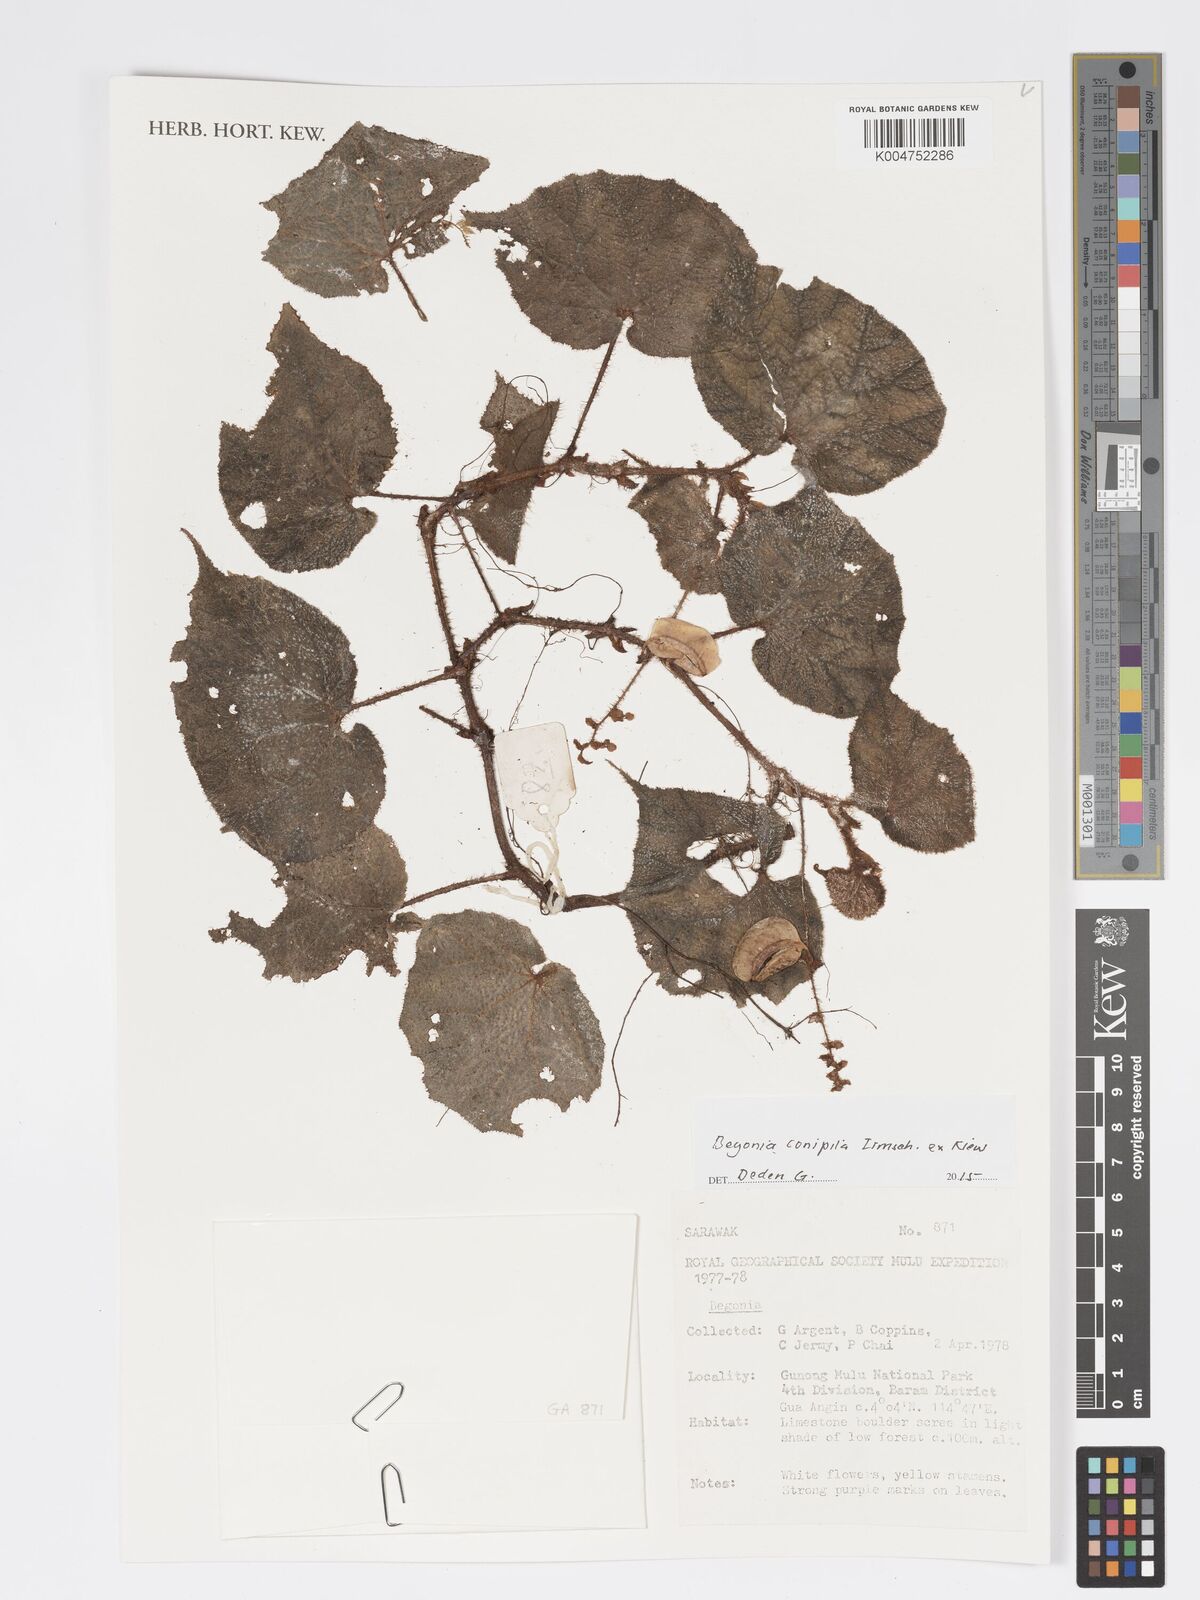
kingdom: Plantae
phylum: Tracheophyta
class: Magnoliopsida
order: Cucurbitales
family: Begoniaceae
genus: Begonia
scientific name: Begonia conipila
